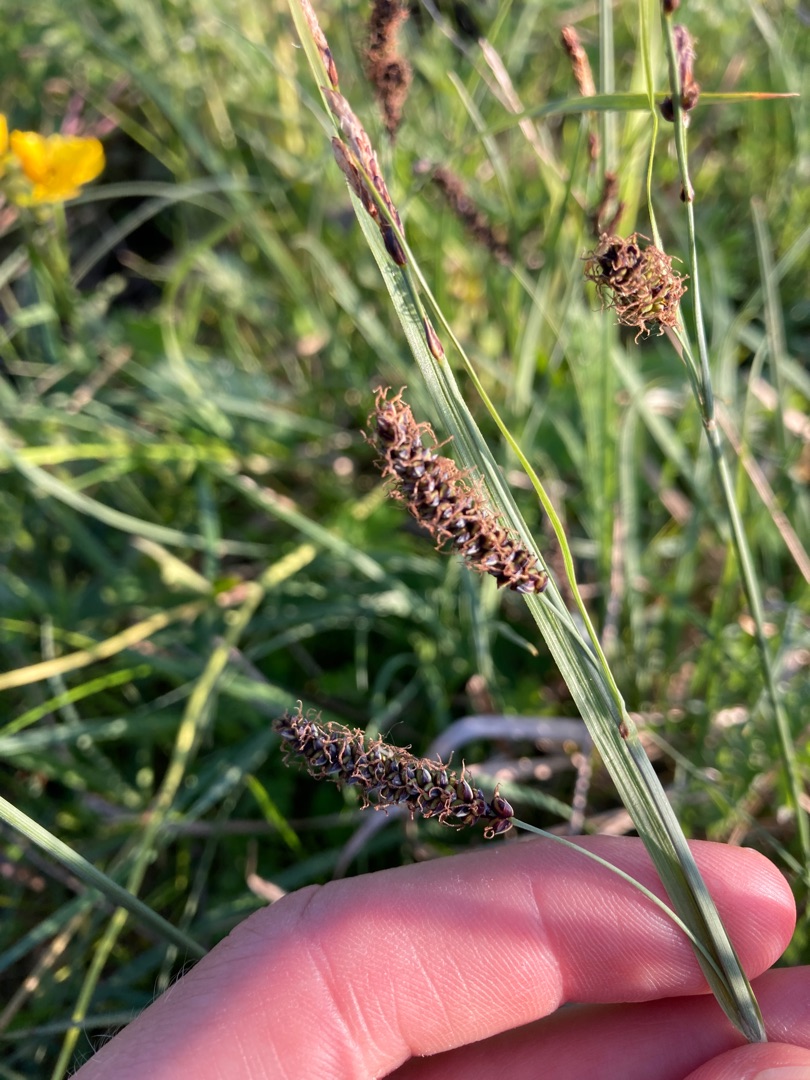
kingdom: Plantae
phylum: Tracheophyta
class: Liliopsida
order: Poales
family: Cyperaceae
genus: Carex
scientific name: Carex flacca
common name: Blågrøn star
